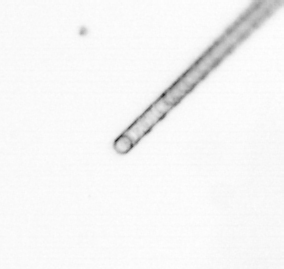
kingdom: Chromista
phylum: Ochrophyta
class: Bacillariophyceae
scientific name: Bacillariophyceae
